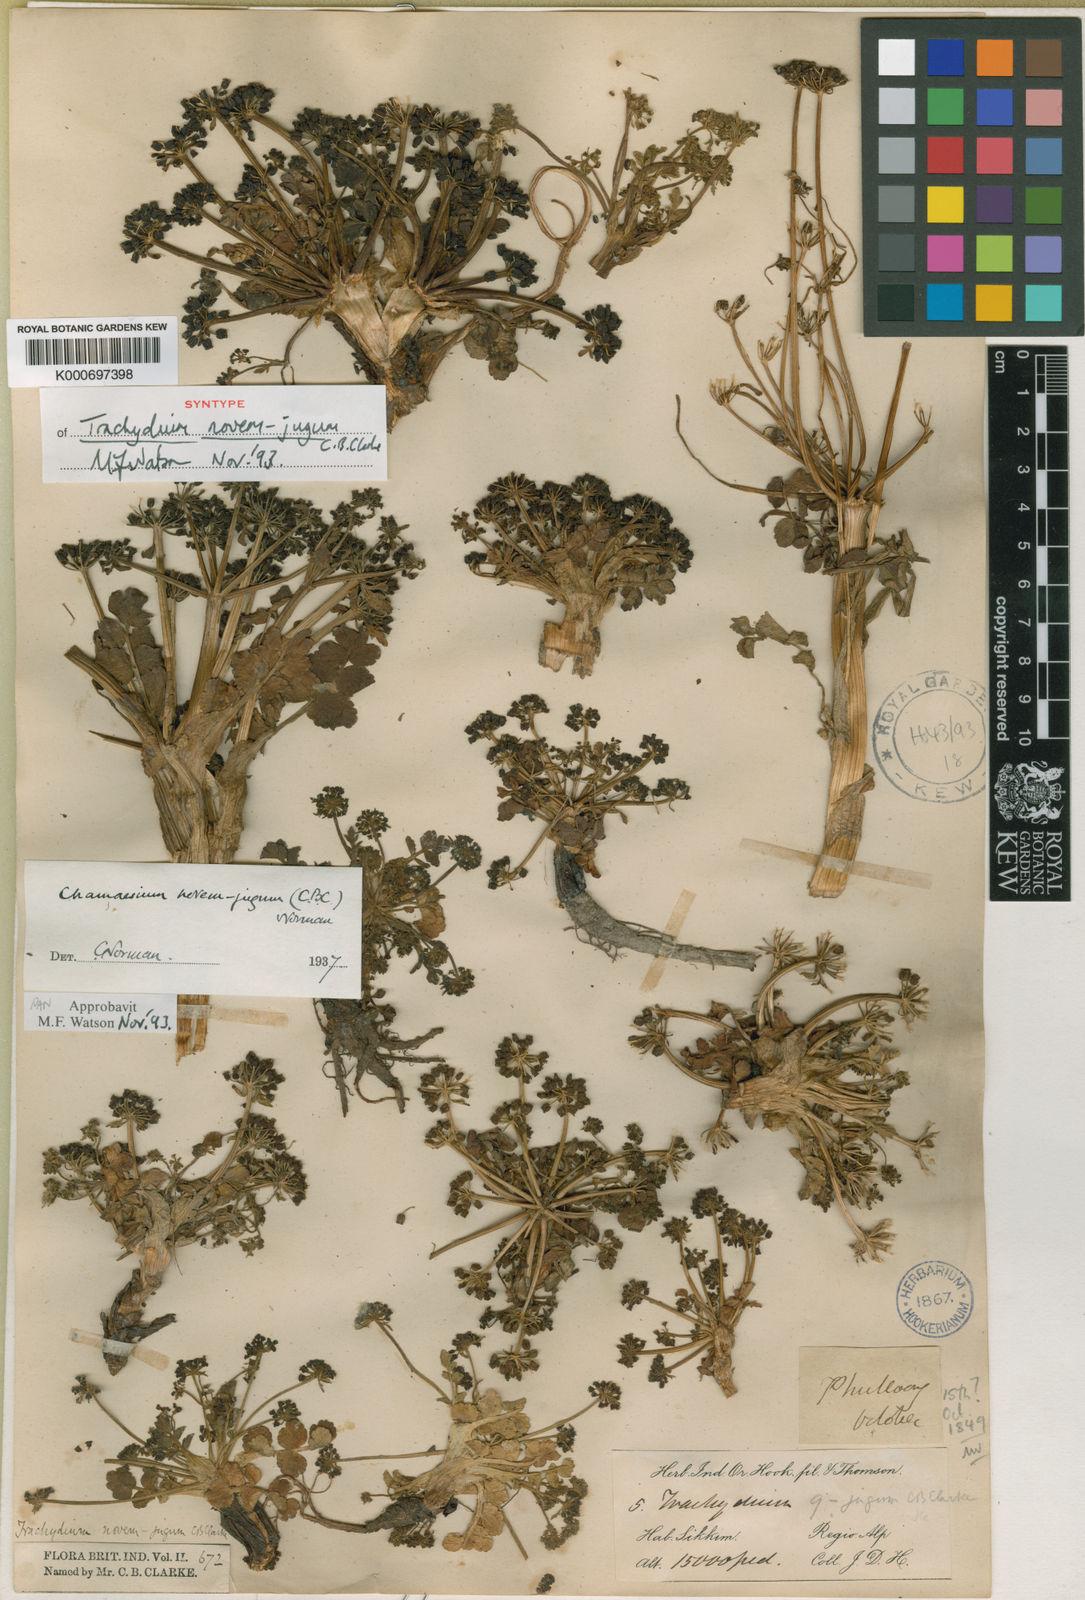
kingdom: Plantae
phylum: Tracheophyta
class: Magnoliopsida
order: Apiales
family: Apiaceae
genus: Chamaesium
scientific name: Chamaesium novem-jugum
